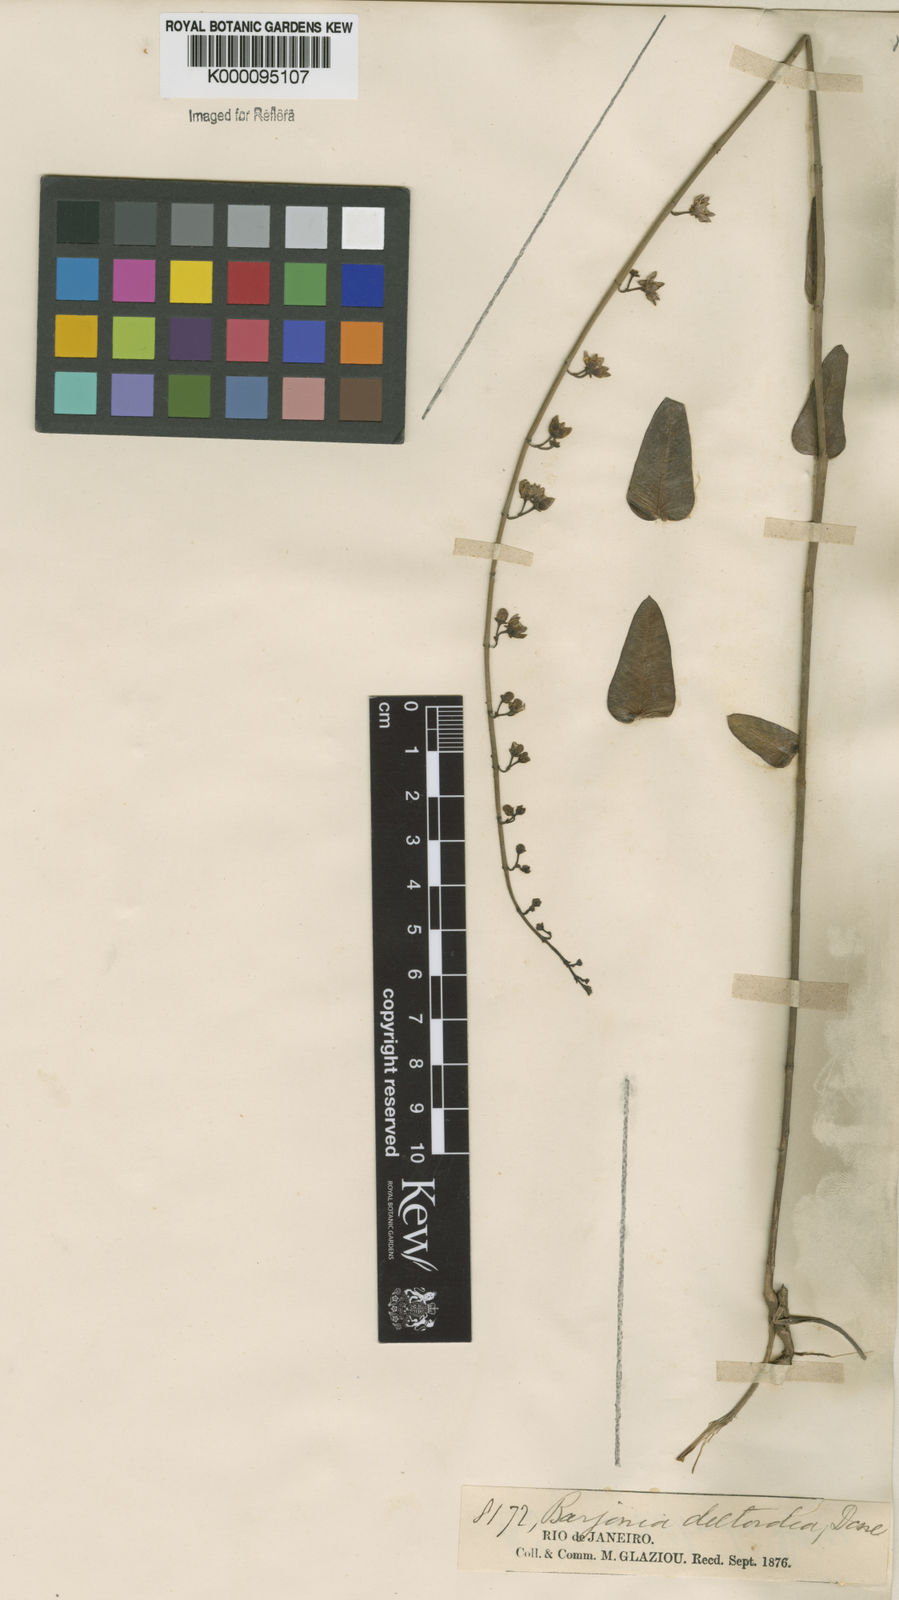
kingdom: Plantae
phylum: Tracheophyta
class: Magnoliopsida
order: Gentianales
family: Apocynaceae
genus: Barjonia
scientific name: Barjonia erecta
